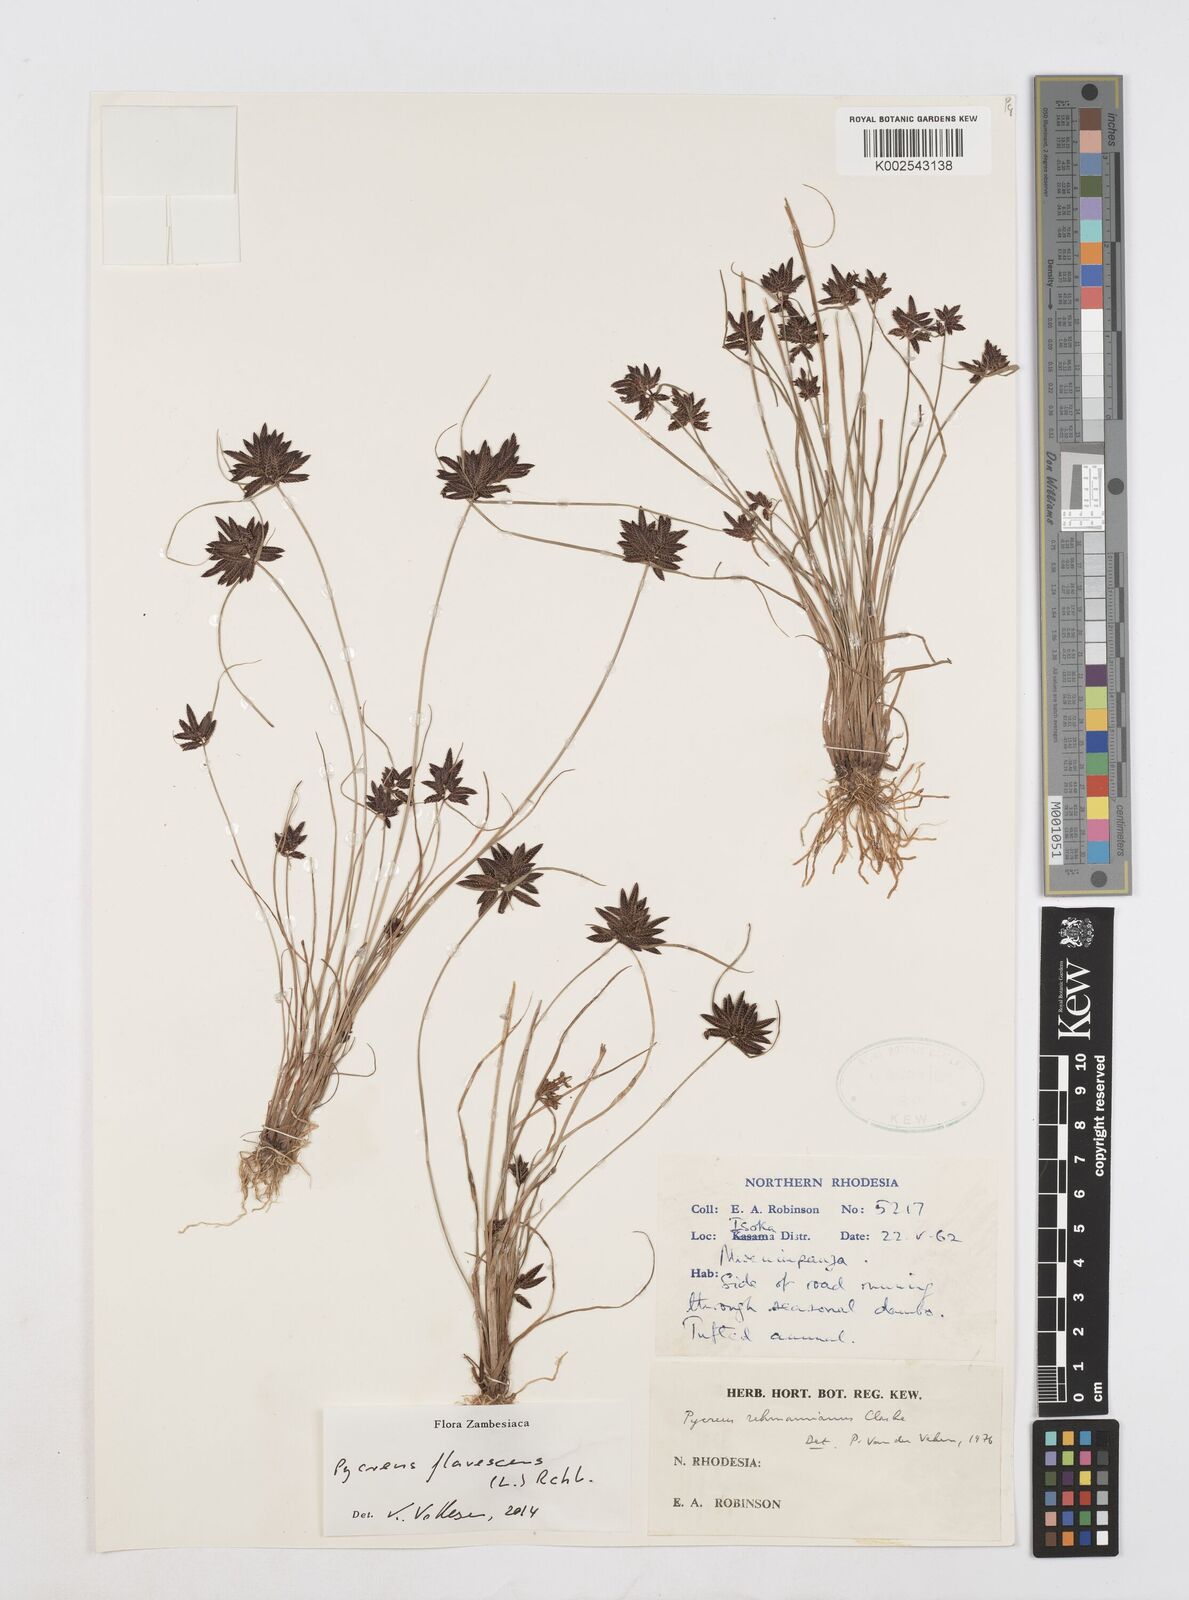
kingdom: Plantae
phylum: Tracheophyta
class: Liliopsida
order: Poales
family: Cyperaceae
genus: Cyperus
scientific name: Cyperus flavescens
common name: Yellow galingale
